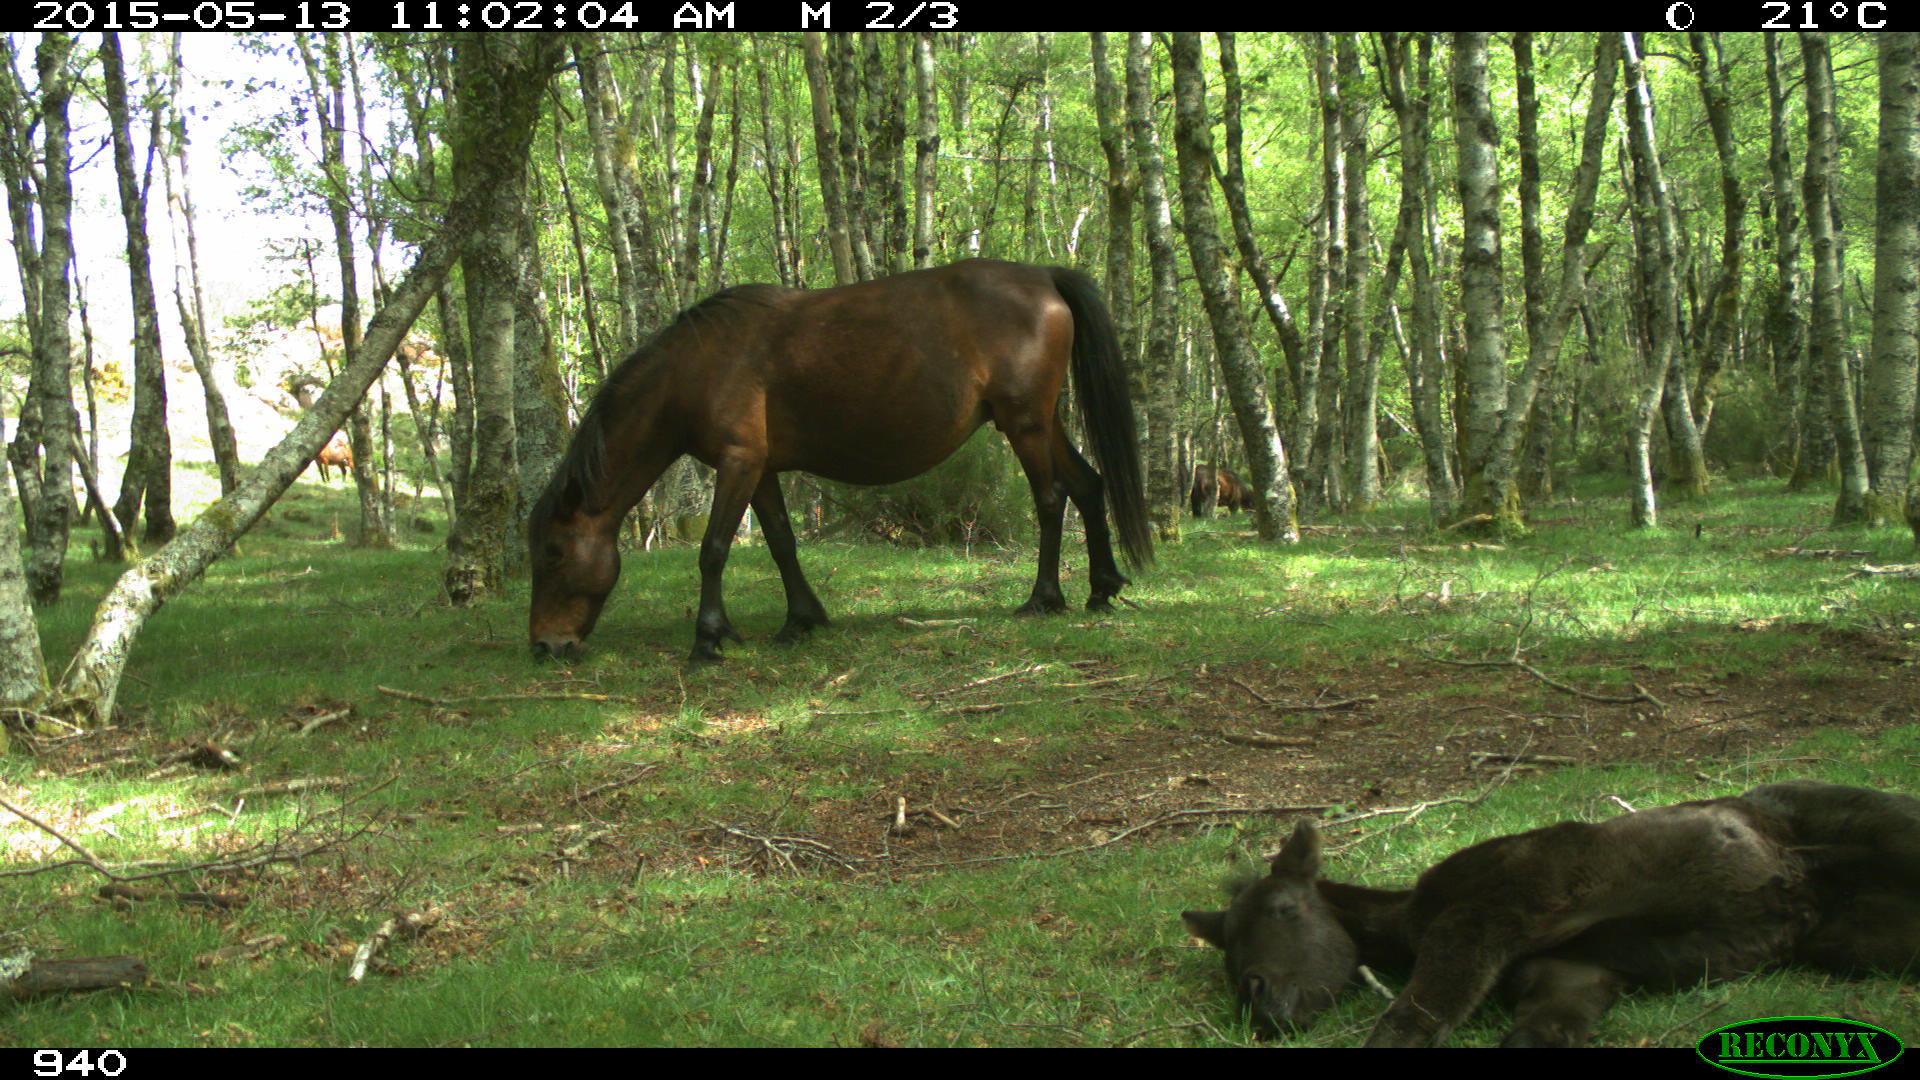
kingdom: Animalia
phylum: Chordata
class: Mammalia
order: Perissodactyla
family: Equidae
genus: Equus
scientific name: Equus caballus
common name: Horse
